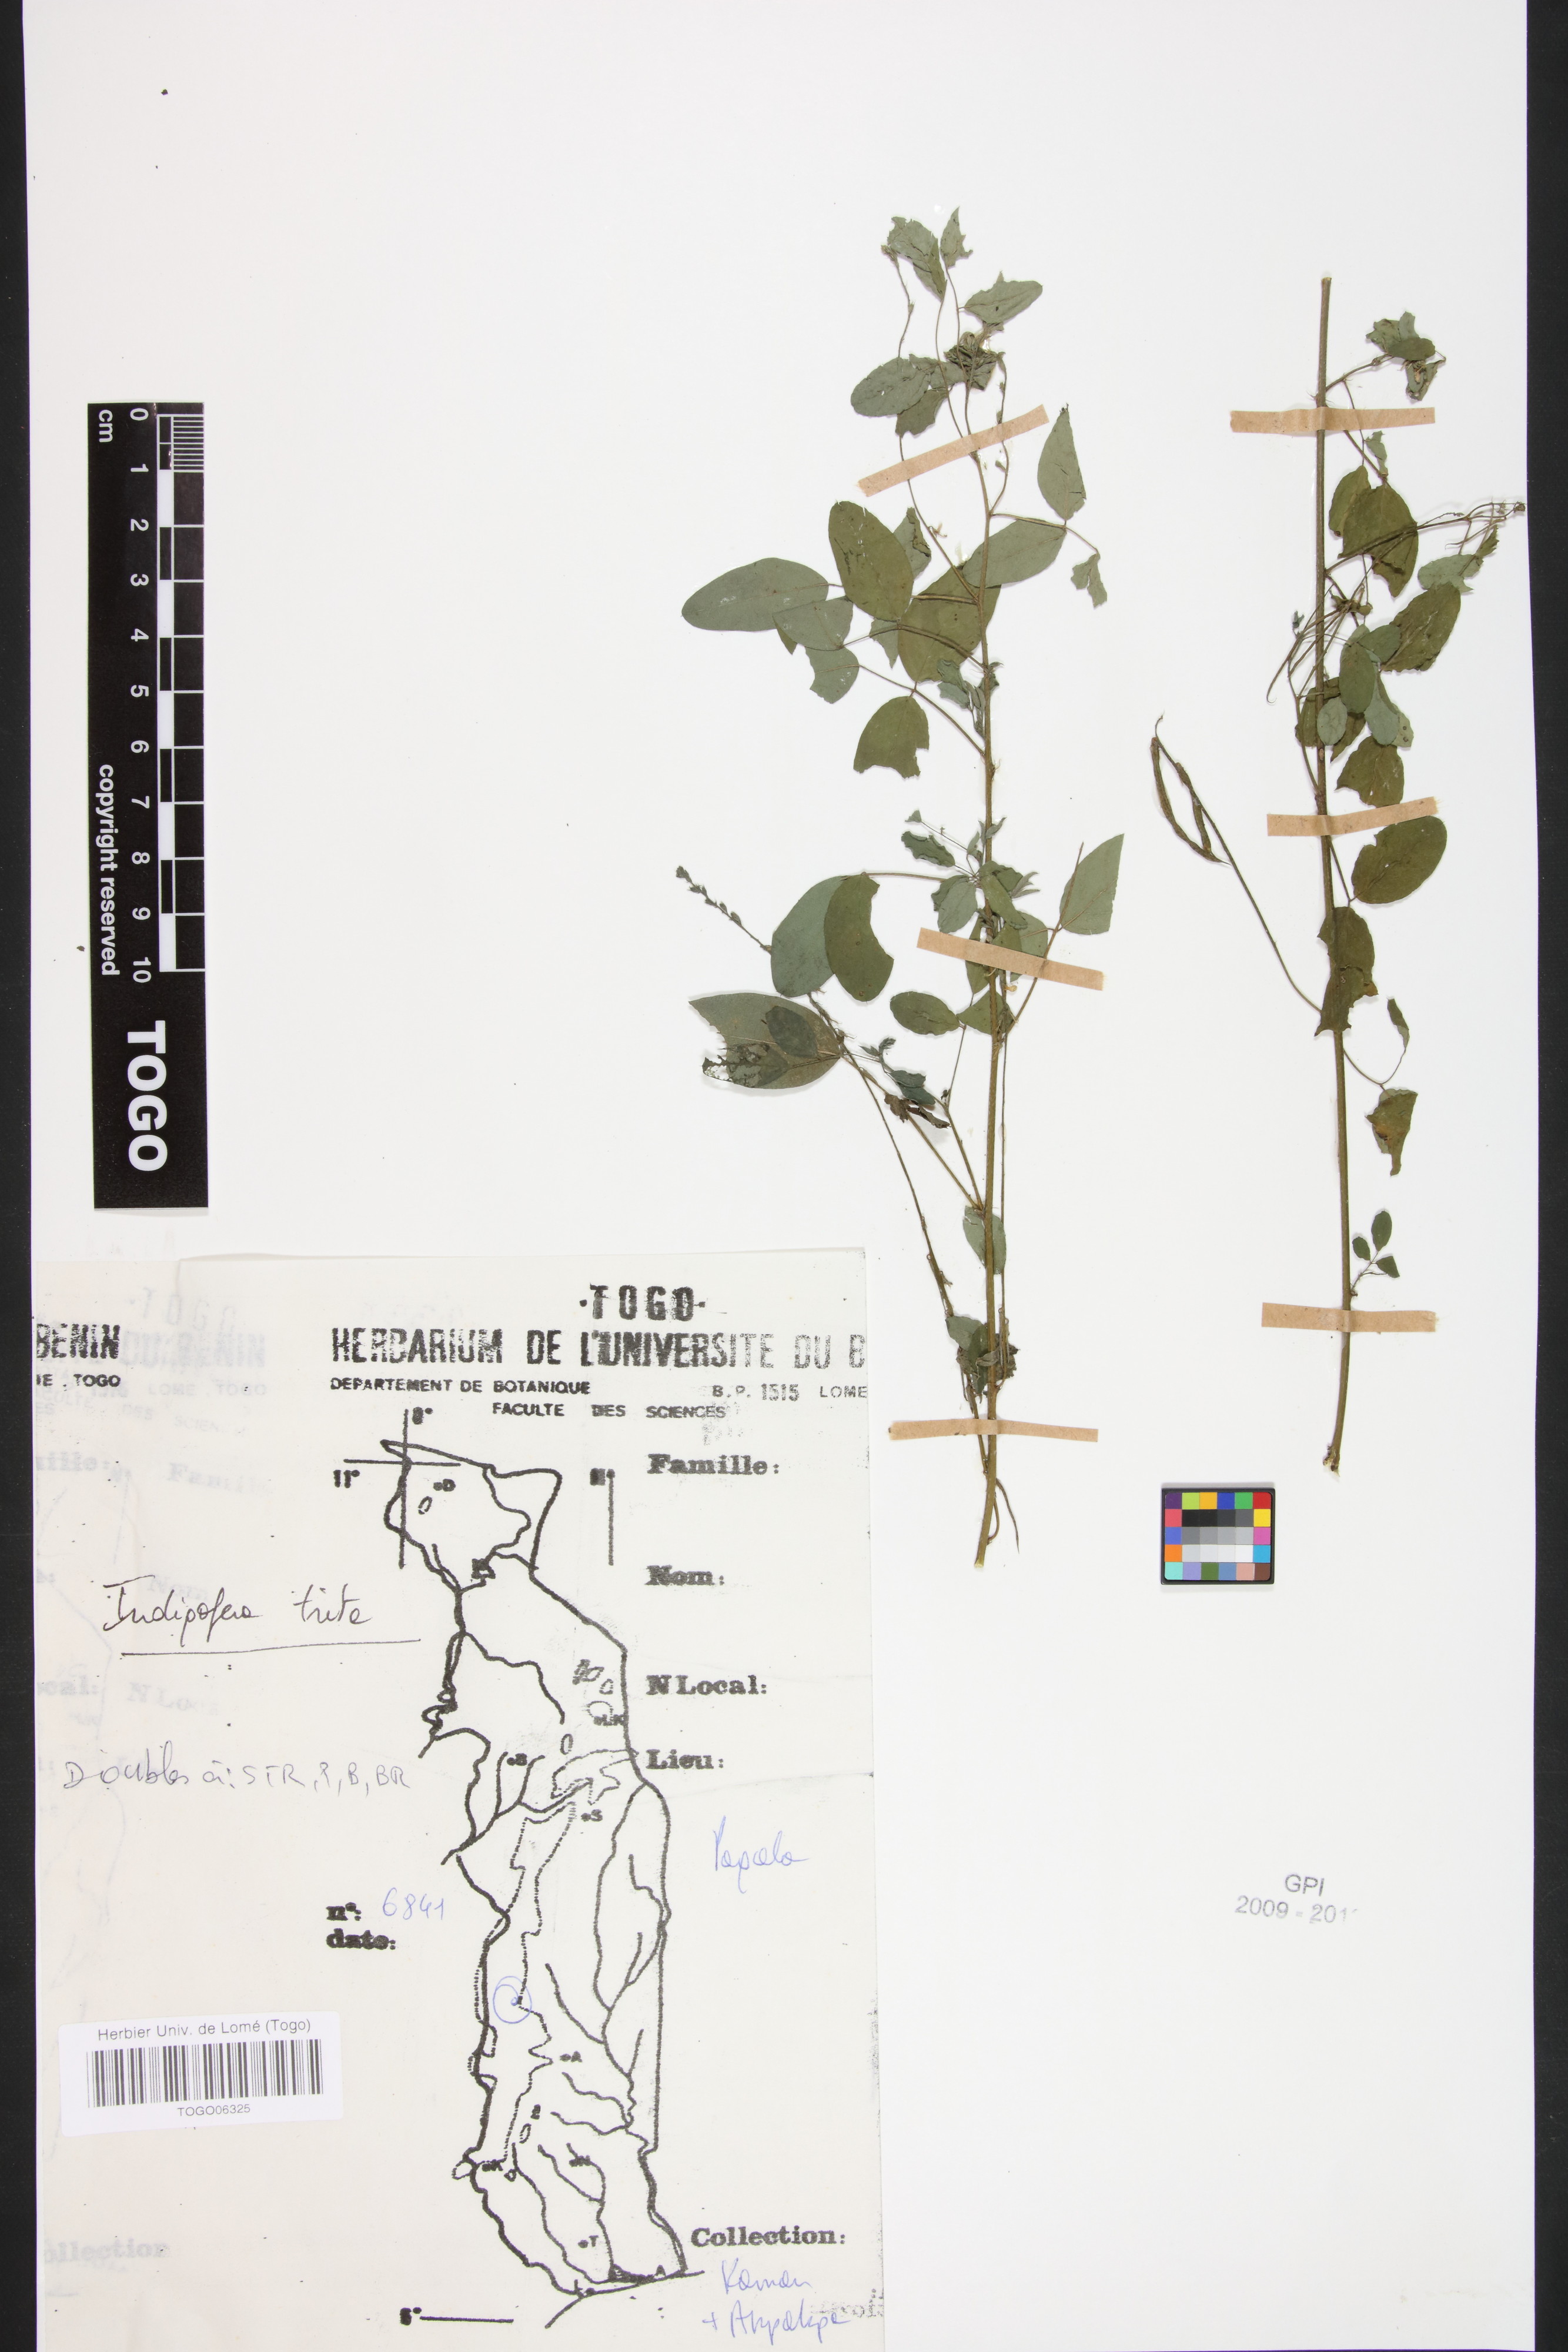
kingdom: Plantae
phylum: Tracheophyta
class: Magnoliopsida
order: Fabales
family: Fabaceae
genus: Indigofera
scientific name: Indigofera subulata
